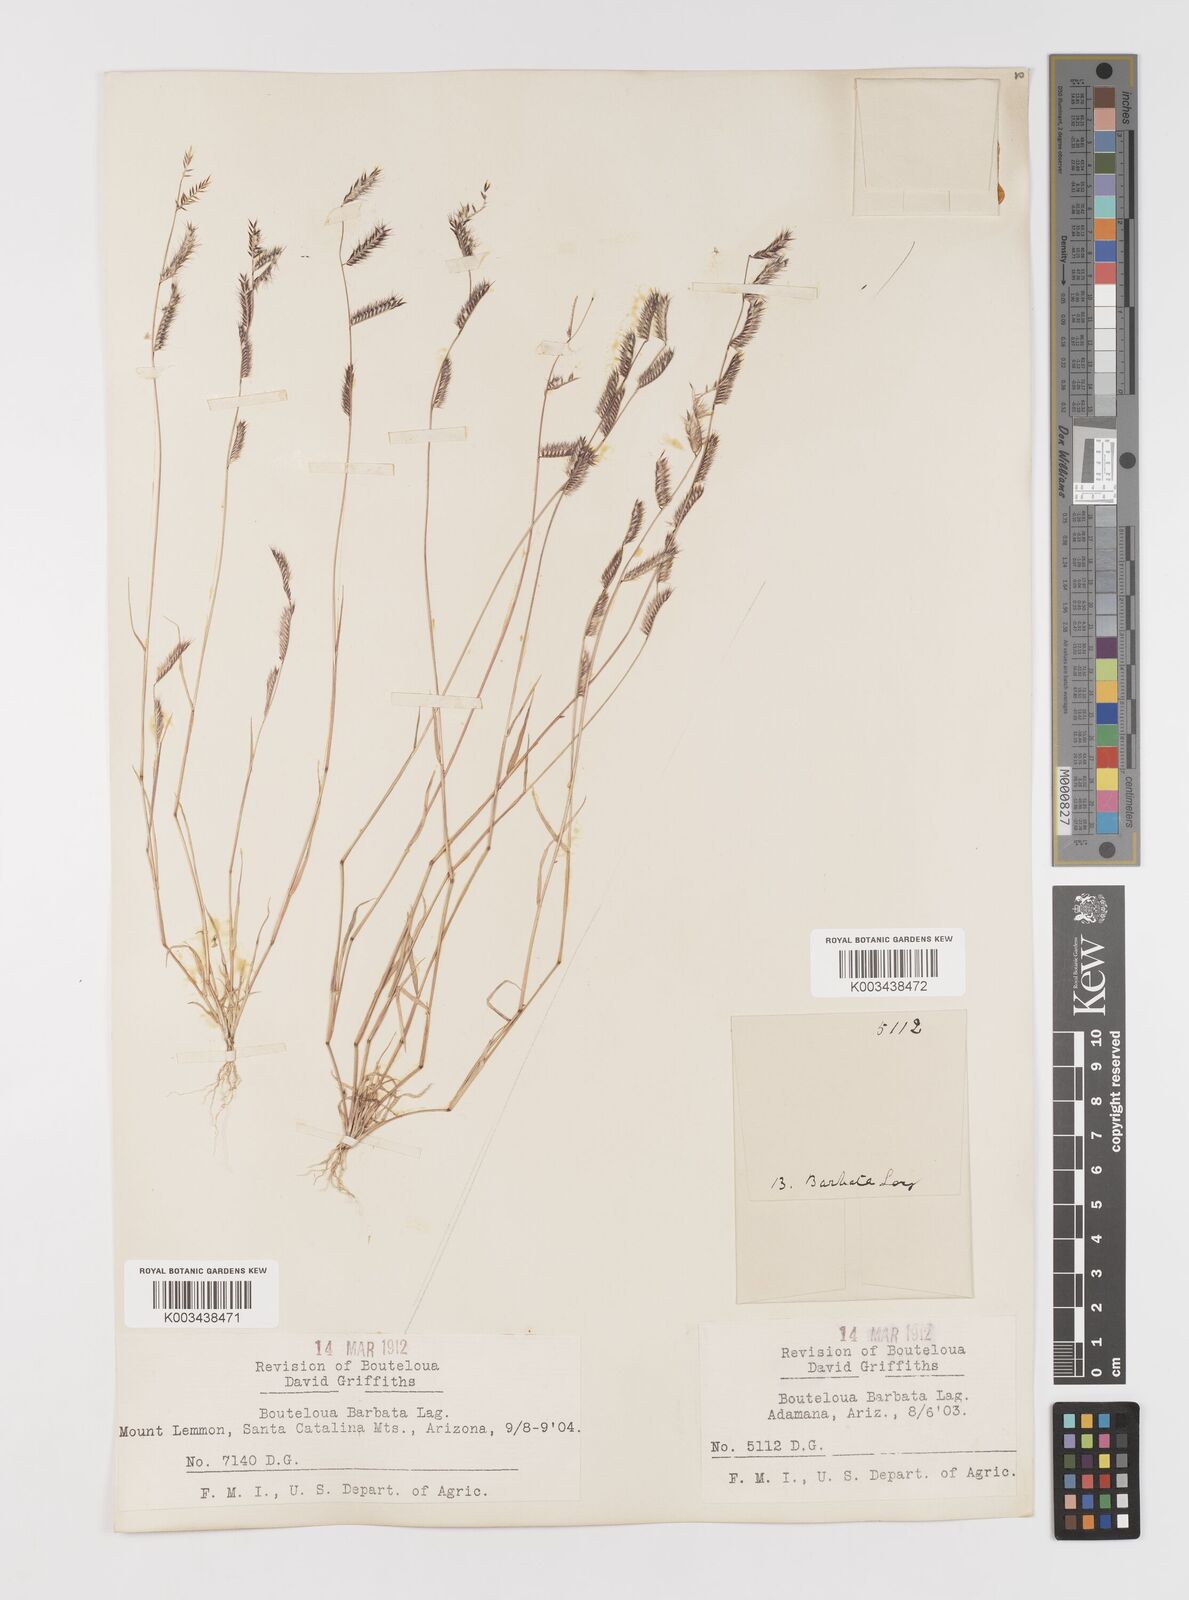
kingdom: Plantae
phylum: Tracheophyta
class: Liliopsida
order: Poales
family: Poaceae
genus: Bouteloua
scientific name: Bouteloua
